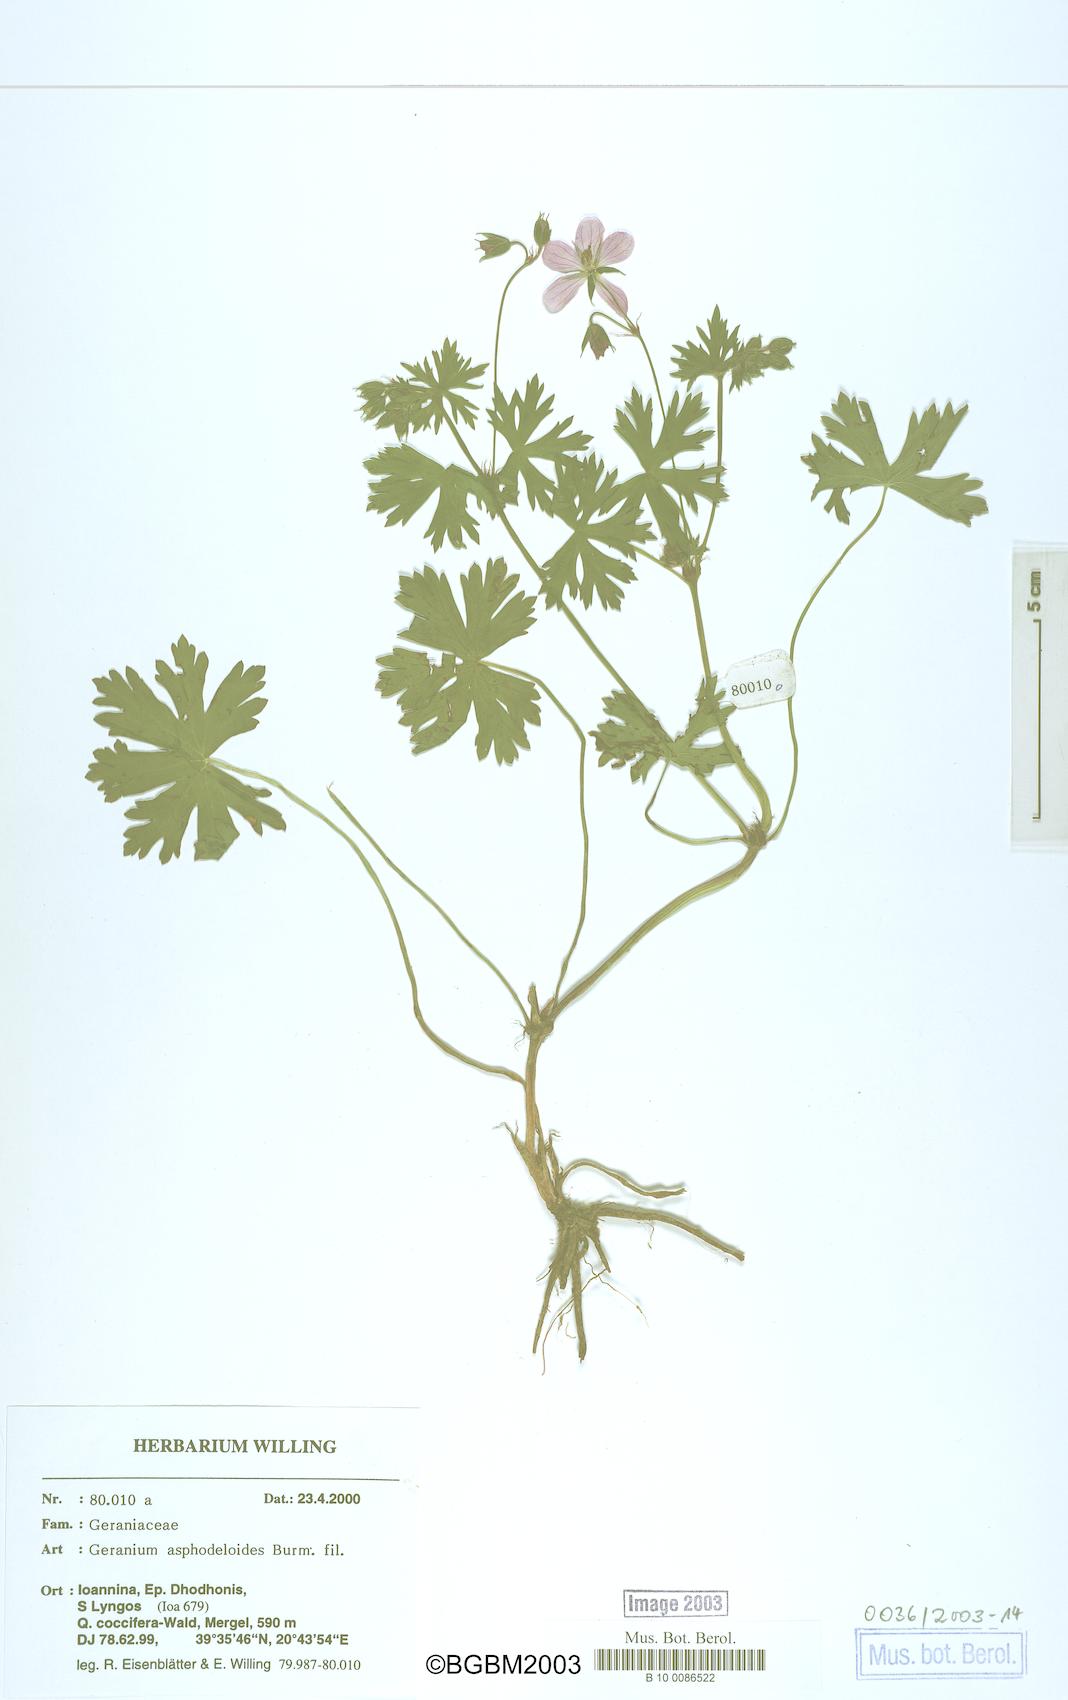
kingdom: Plantae
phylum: Tracheophyta
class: Magnoliopsida
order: Geraniales
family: Geraniaceae
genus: Geranium
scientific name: Geranium asphodeloides
